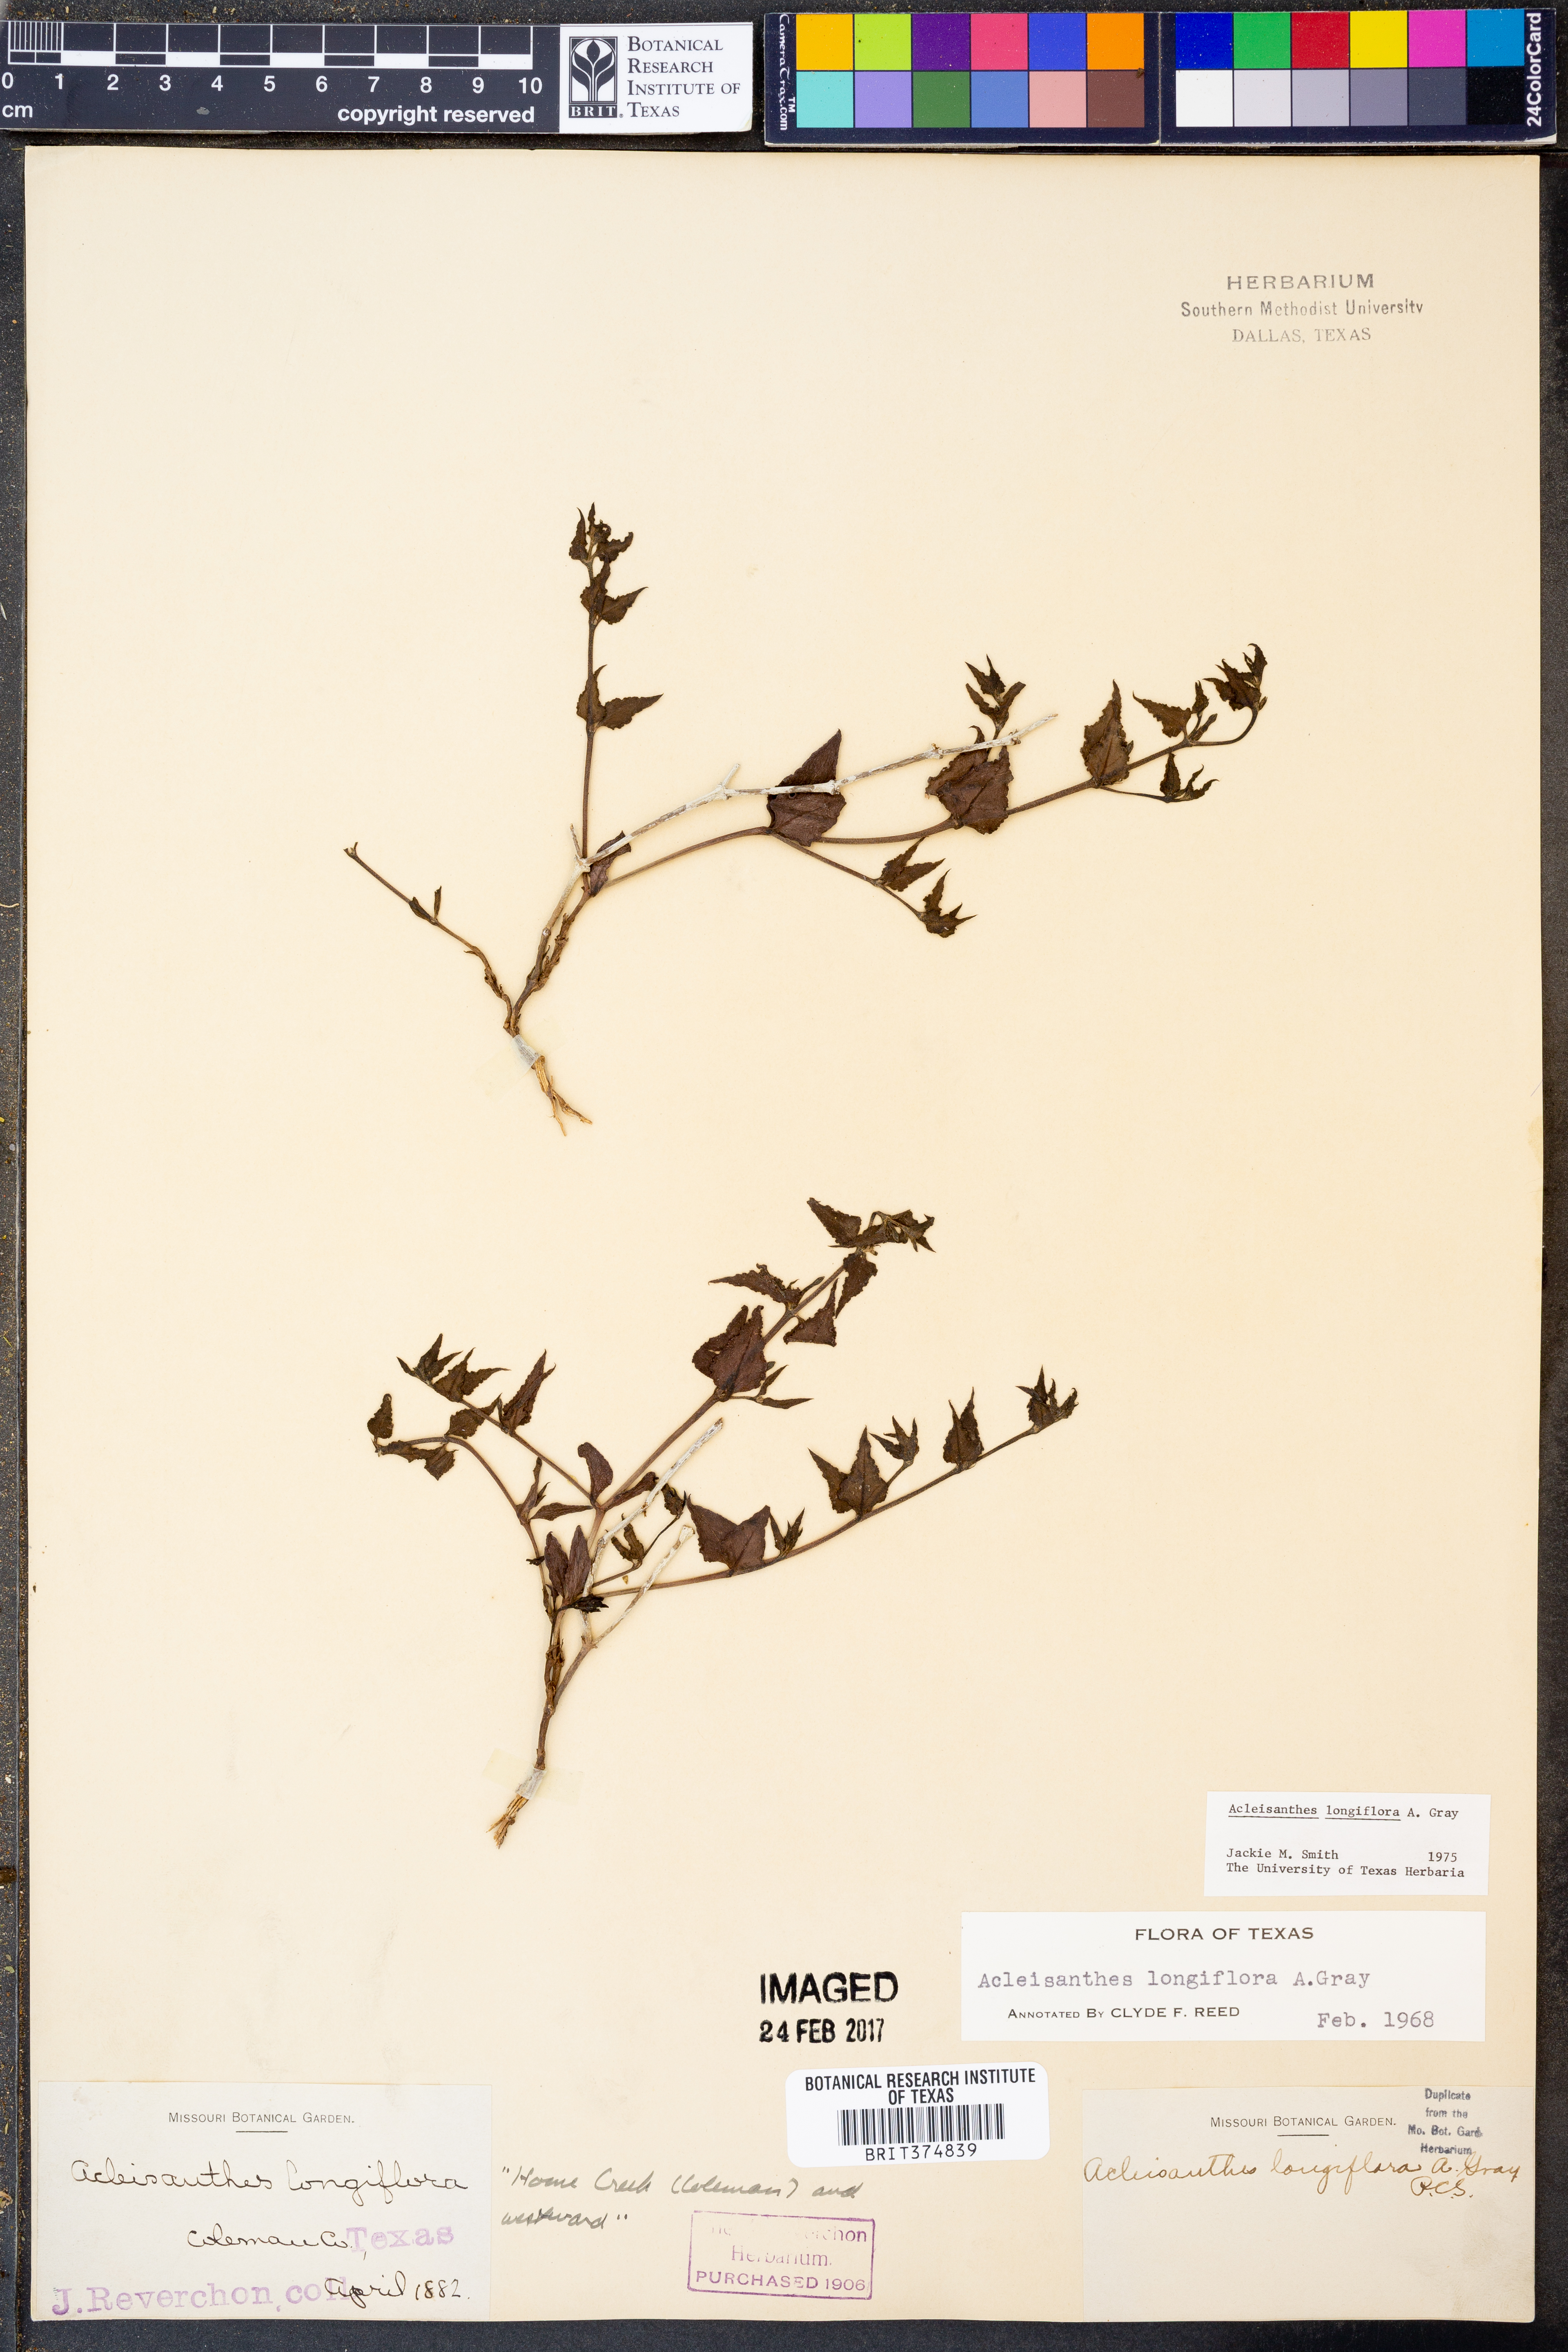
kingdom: Plantae
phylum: Tracheophyta
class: Magnoliopsida
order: Caryophyllales
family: Nyctaginaceae
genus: Acleisanthes
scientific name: Acleisanthes longiflora
